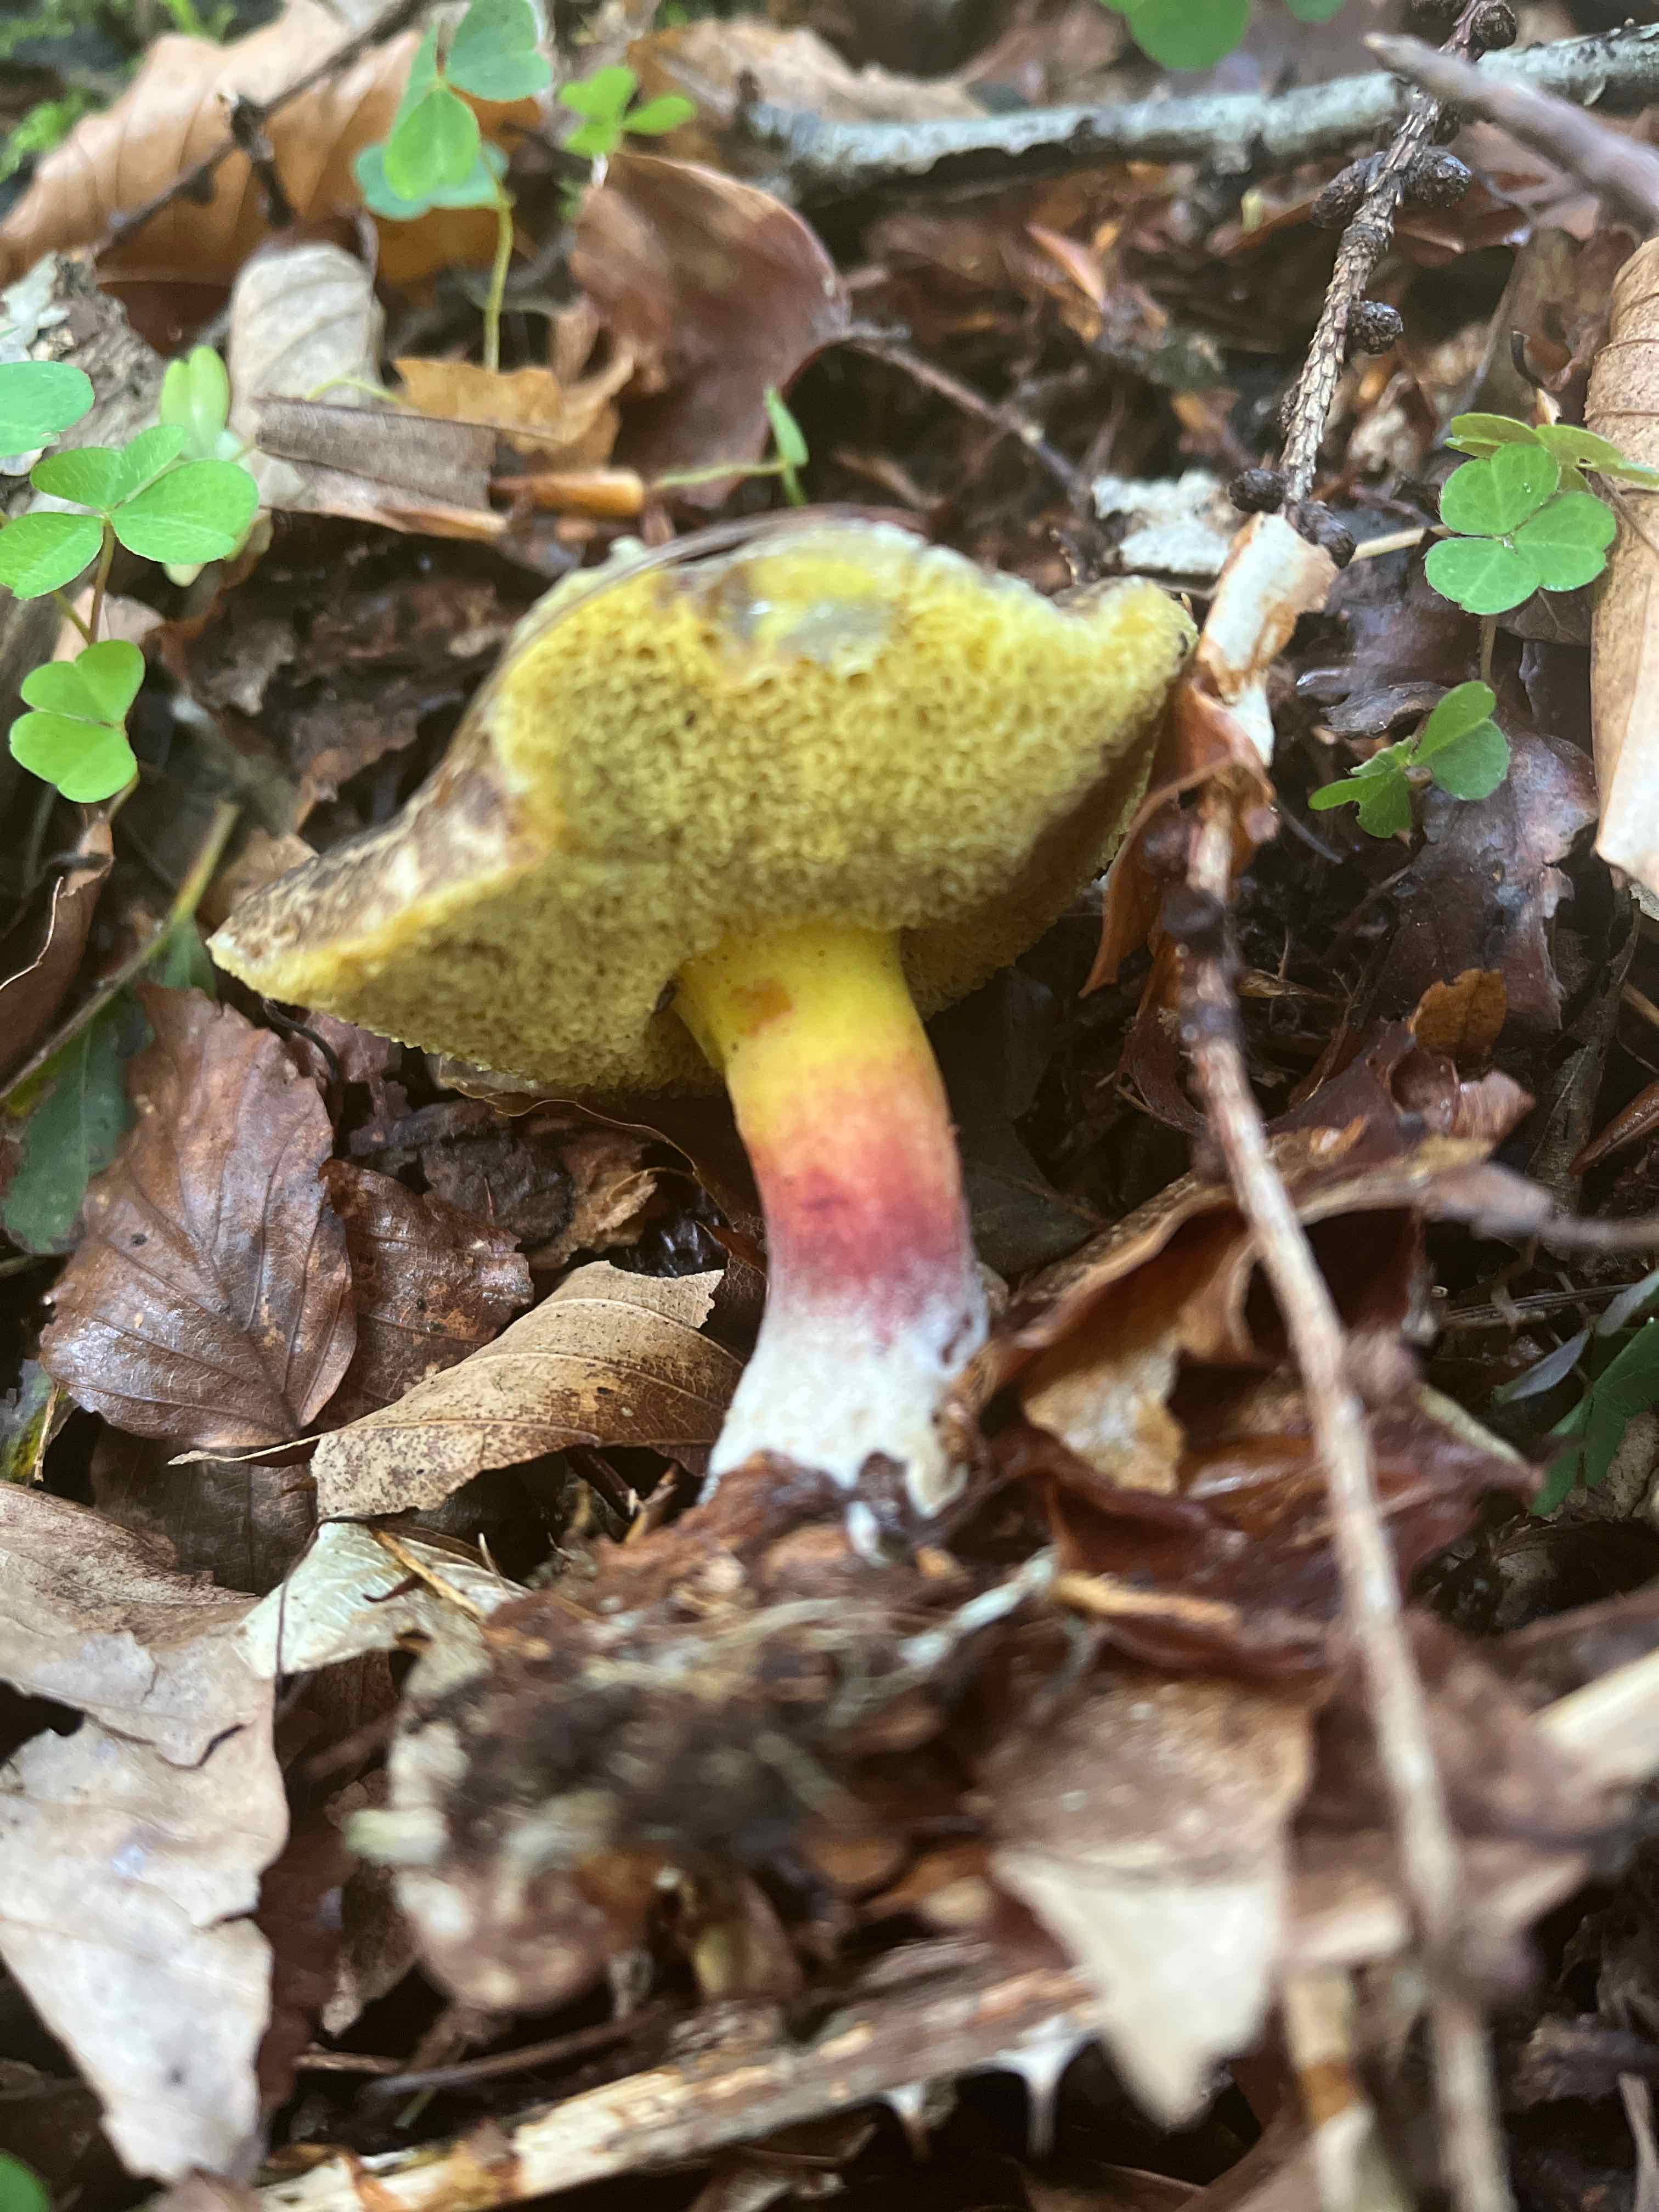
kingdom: Fungi
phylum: Basidiomycota
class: Agaricomycetes
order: Boletales
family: Boletaceae
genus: Xerocomellus
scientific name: Xerocomellus
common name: dværgrørhat
